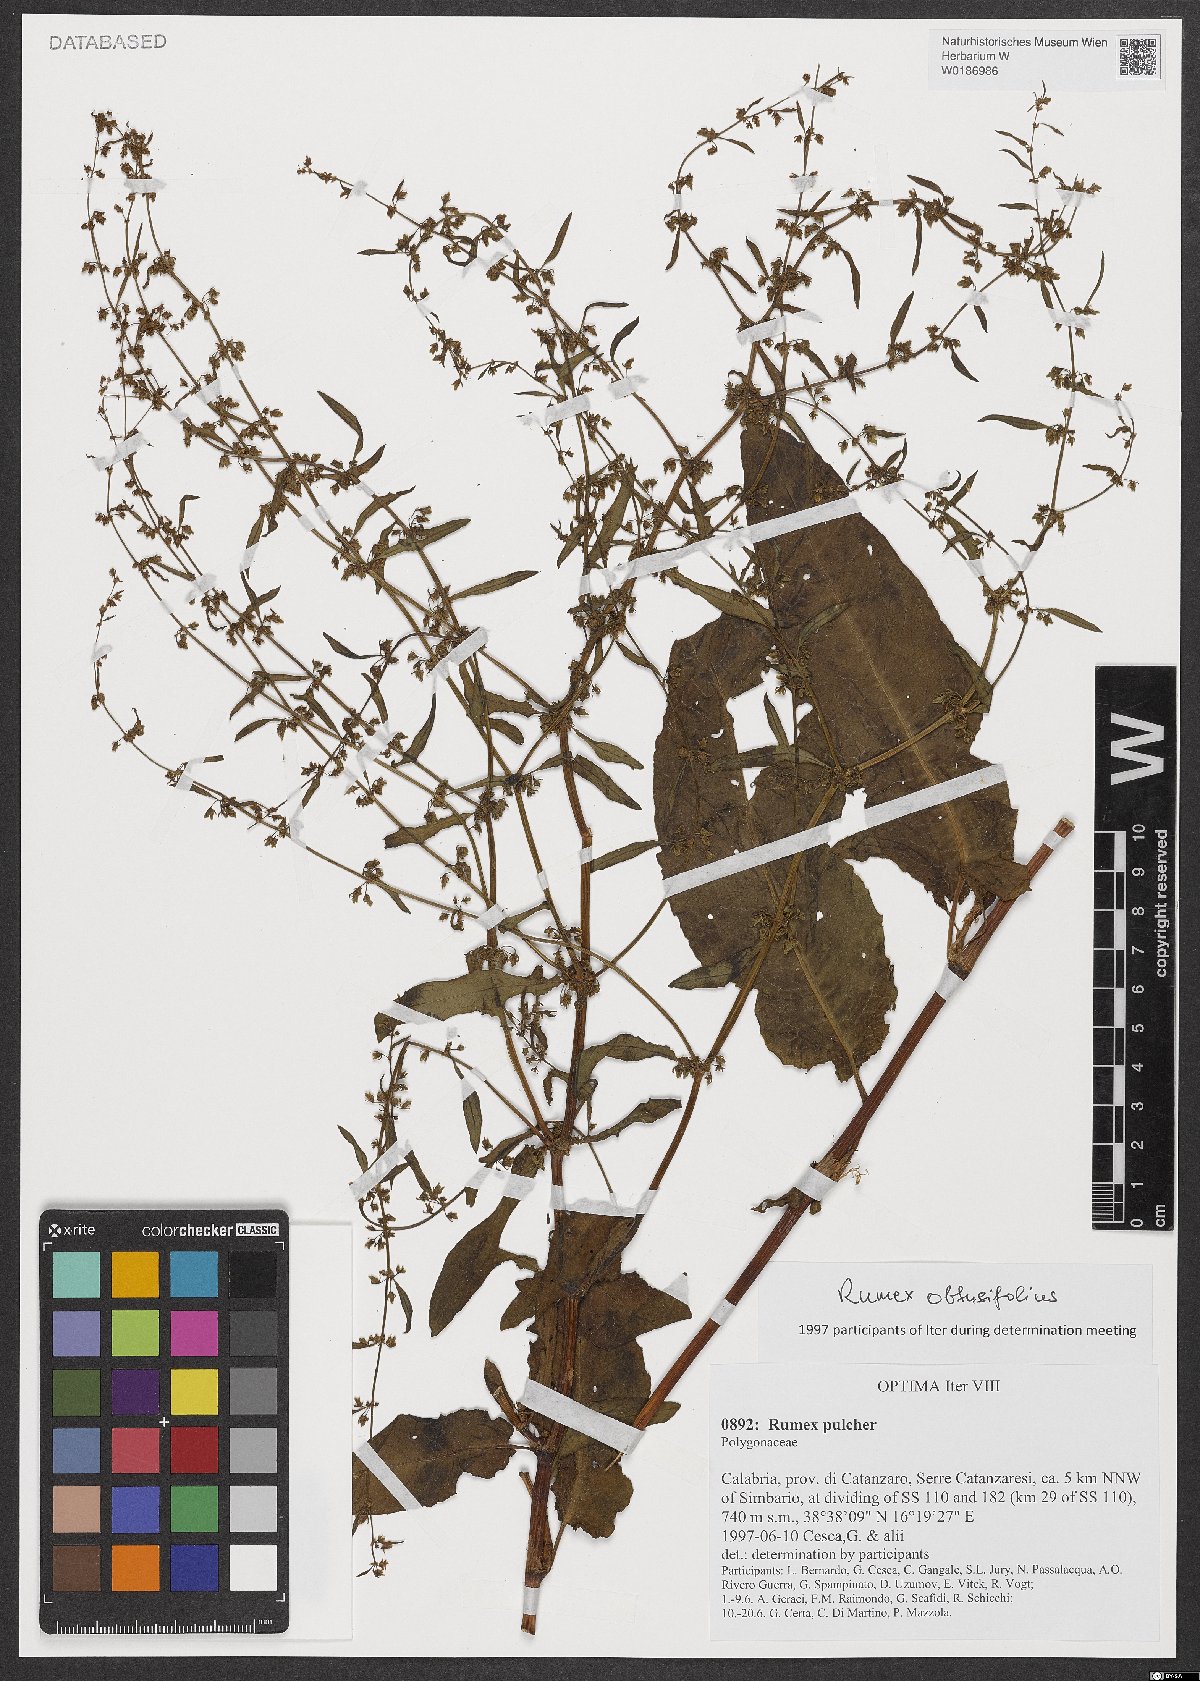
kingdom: Plantae
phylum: Tracheophyta
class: Magnoliopsida
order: Caryophyllales
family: Polygonaceae
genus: Rumex
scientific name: Rumex obtusifolius
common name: Bitter dock
